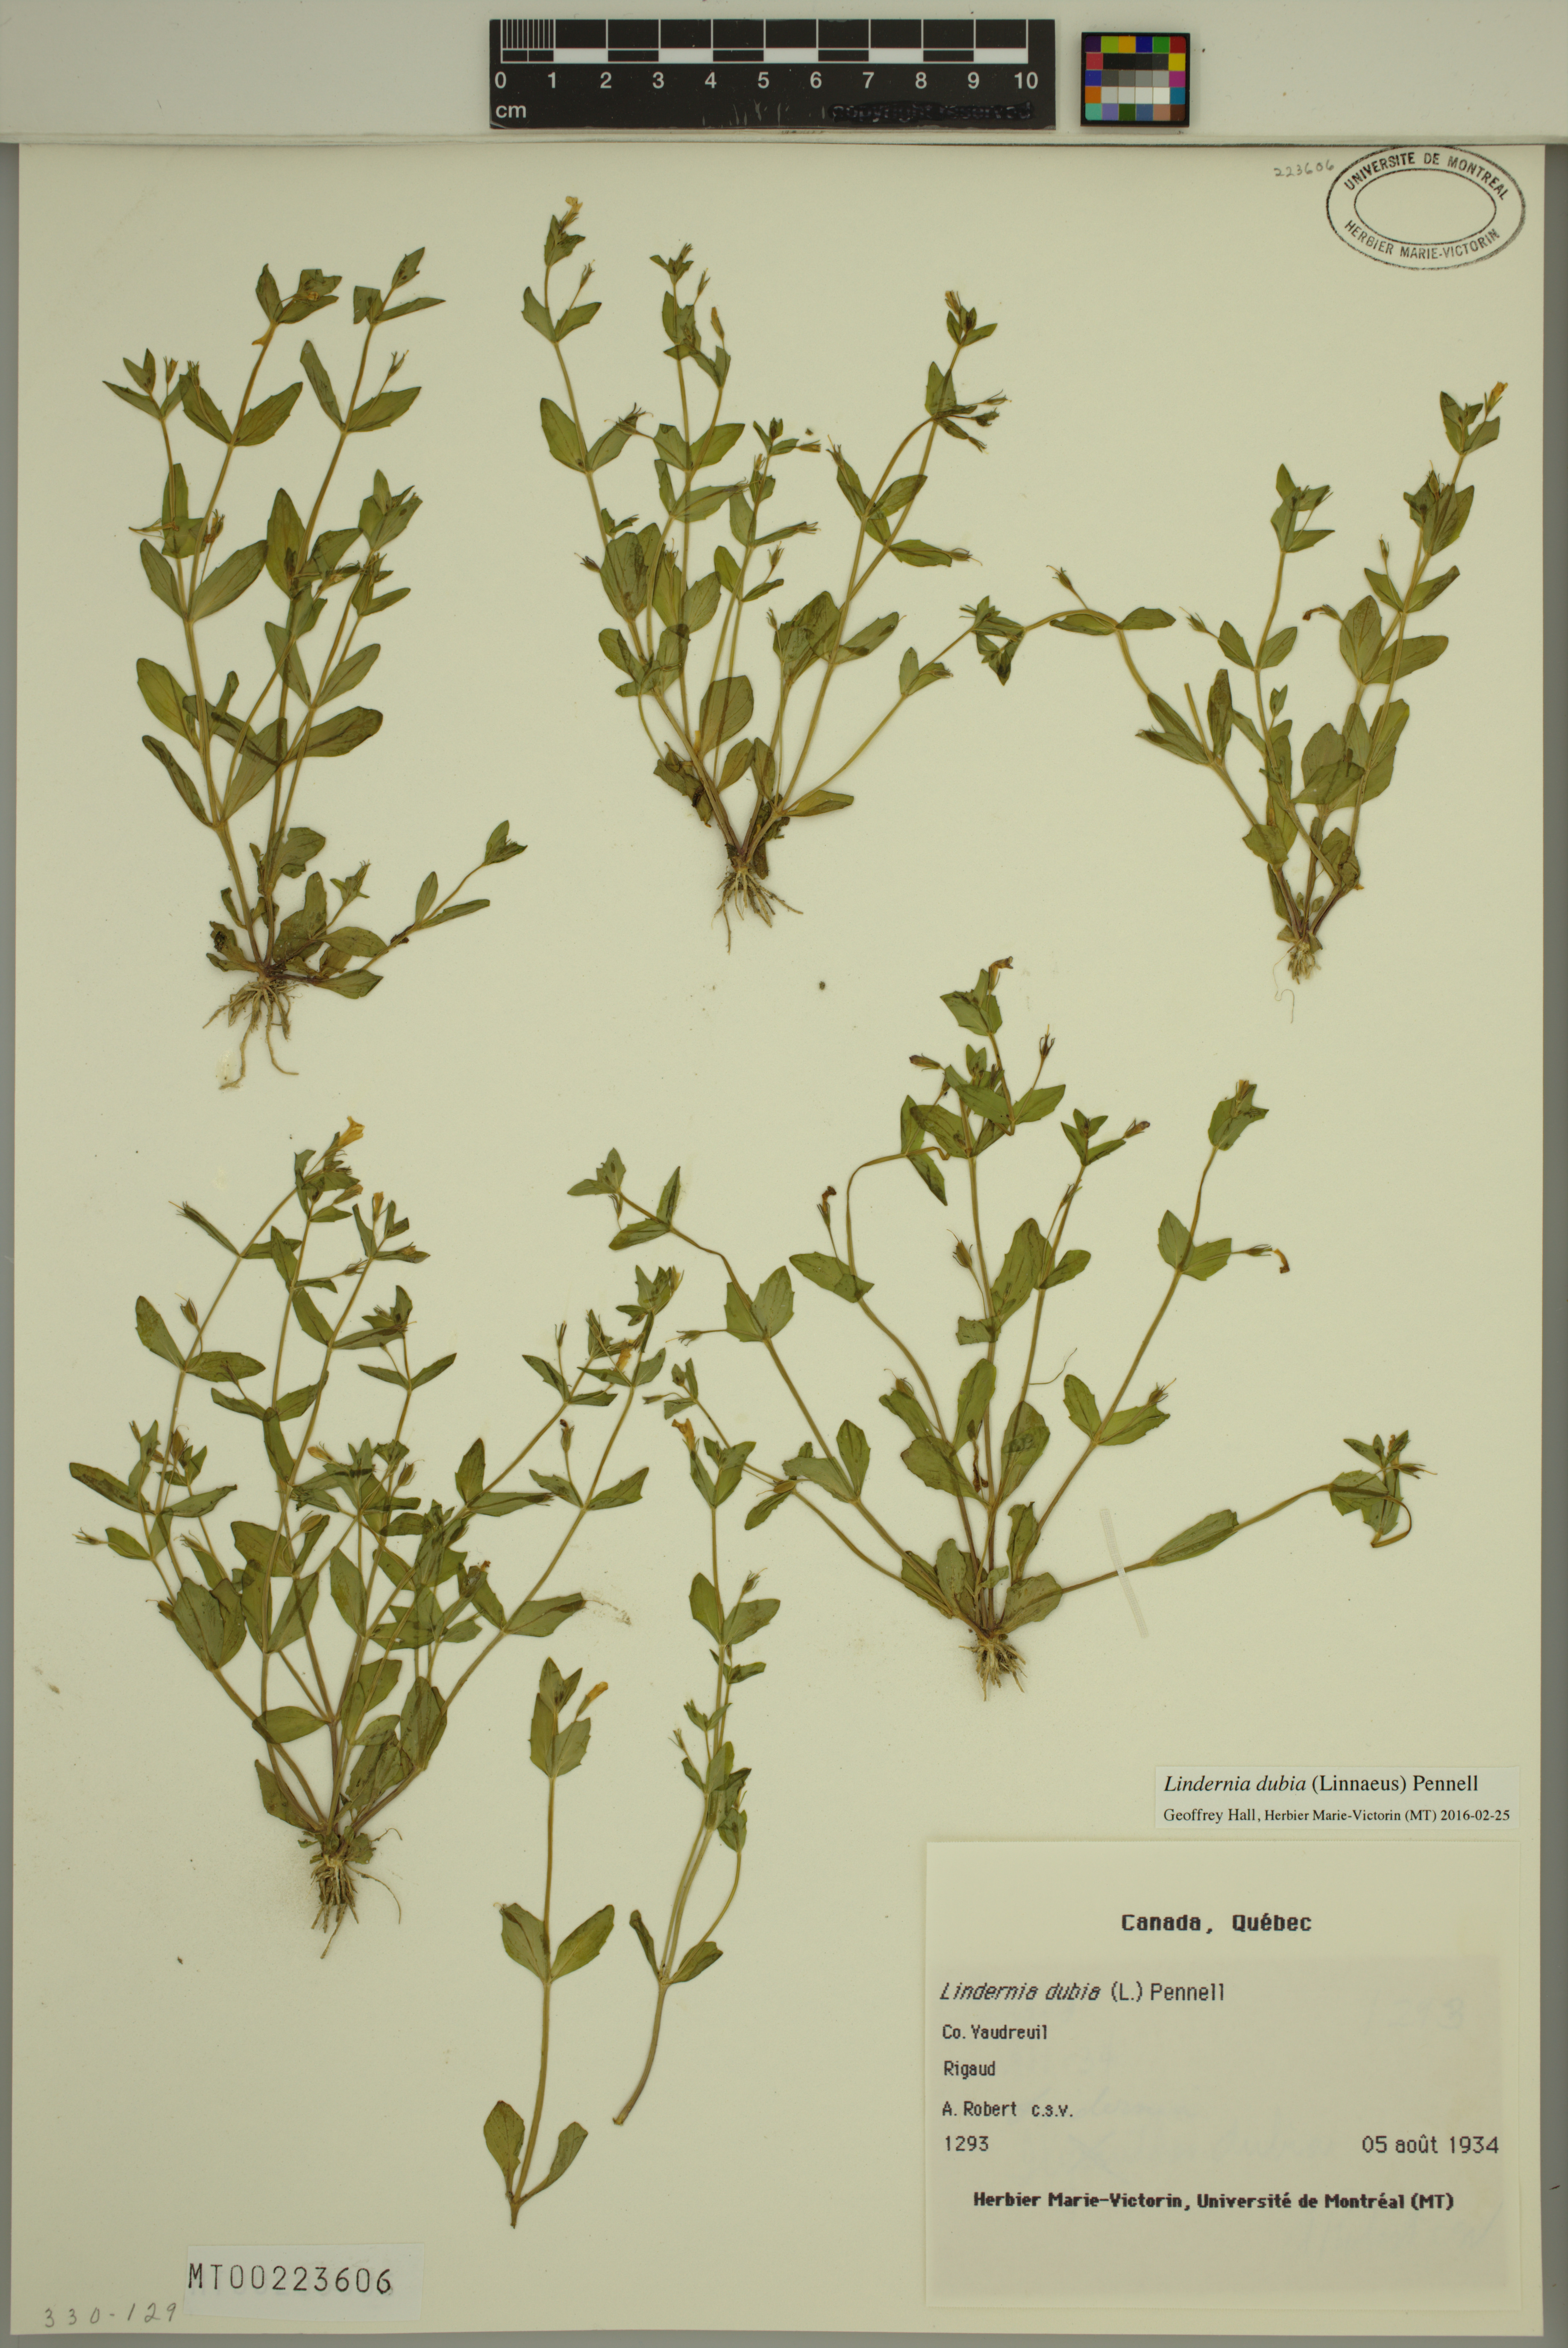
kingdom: Plantae
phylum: Tracheophyta
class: Magnoliopsida
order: Lamiales
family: Linderniaceae
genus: Lindernia
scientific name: Lindernia dubia
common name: Annual false pimpernel
